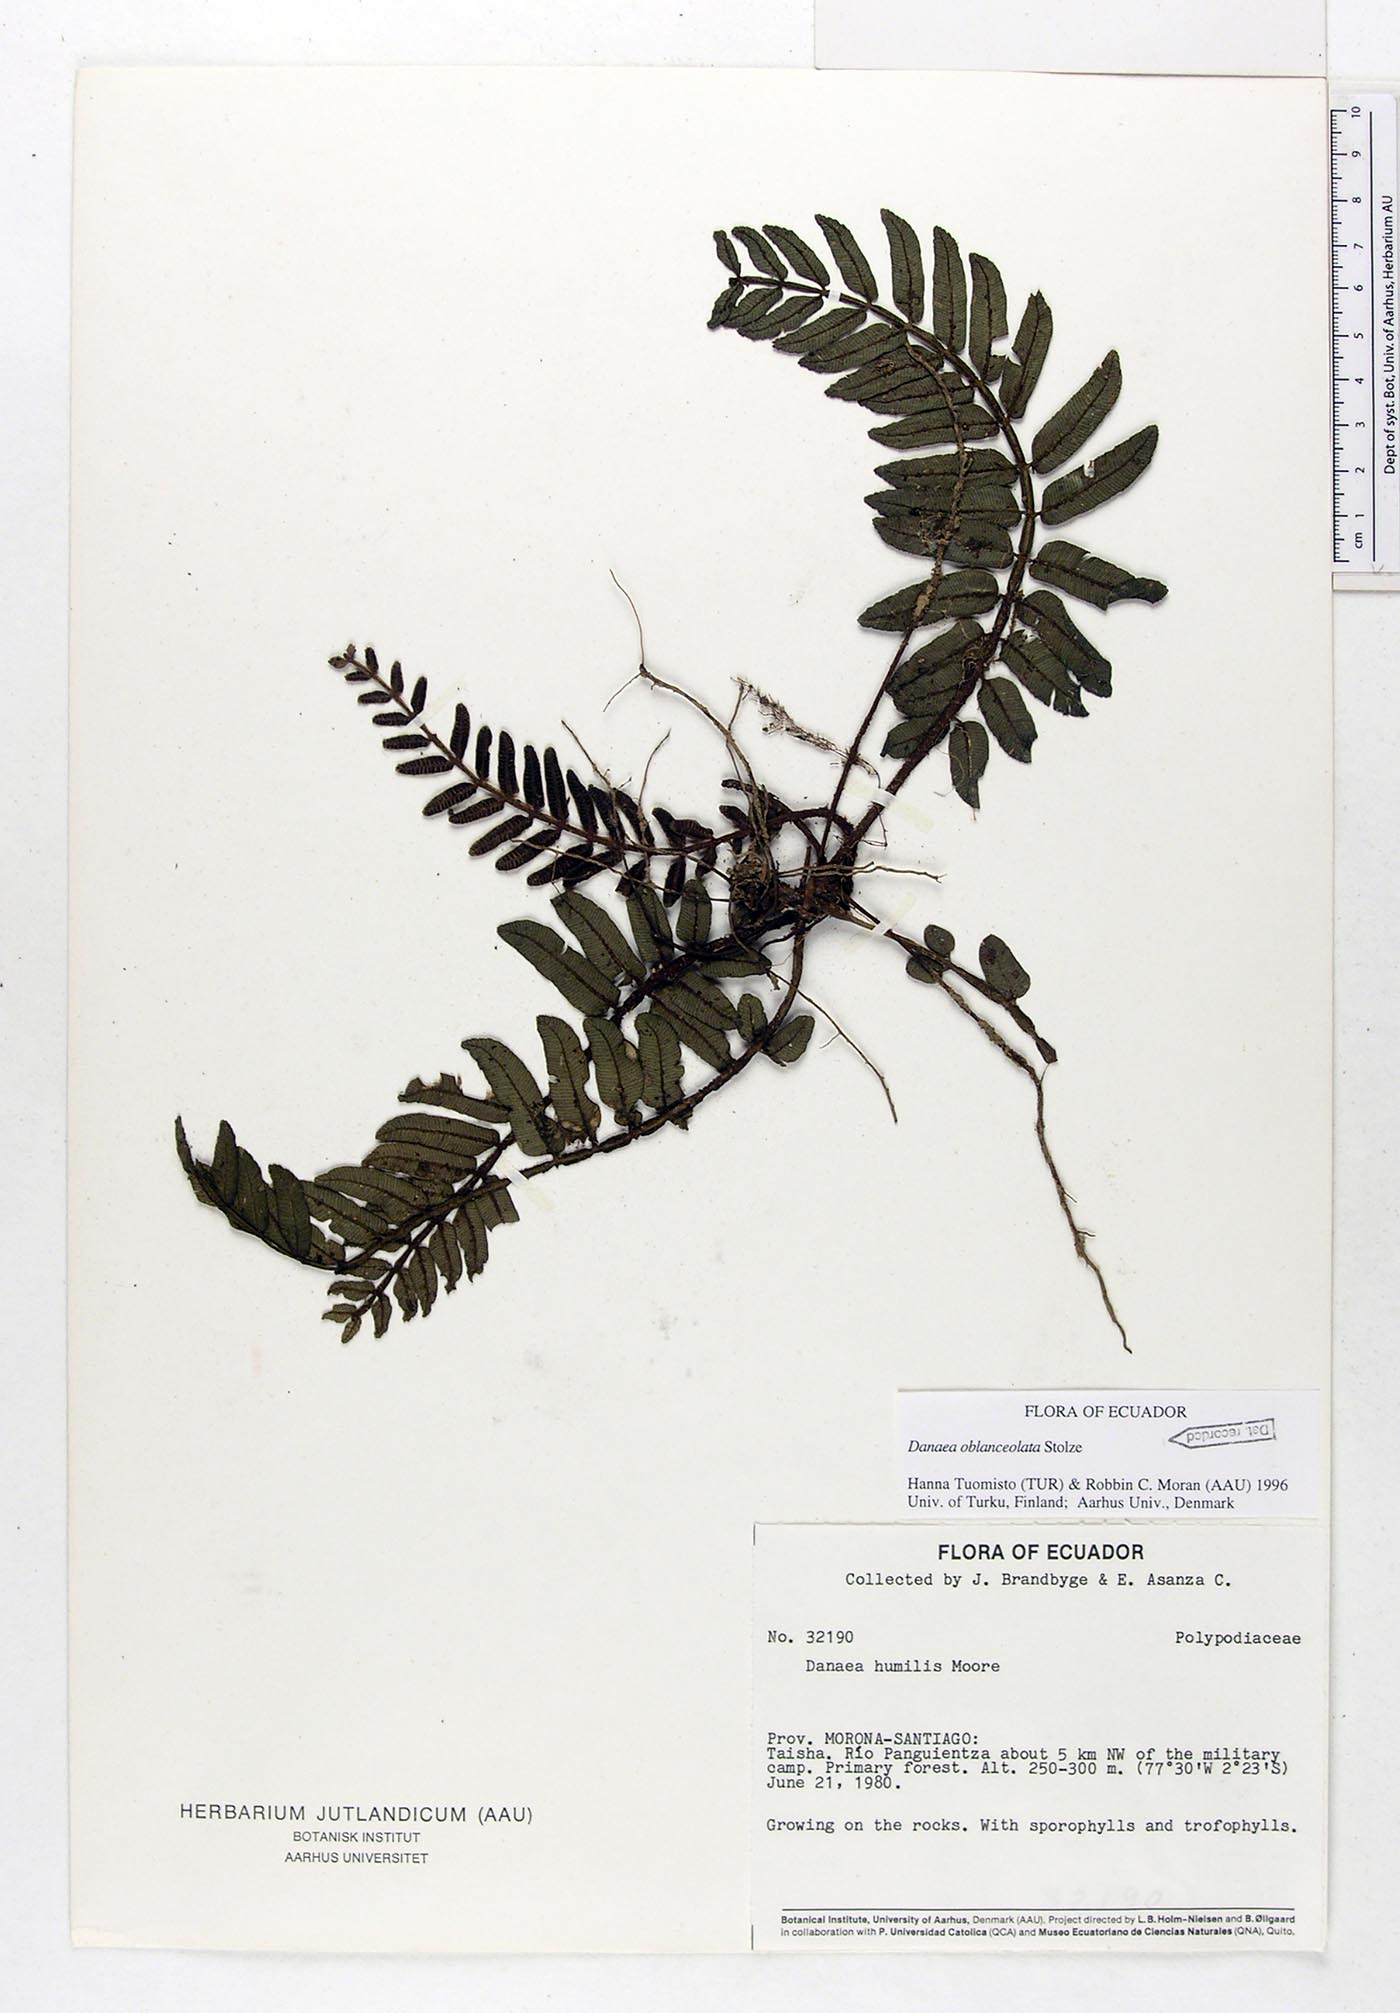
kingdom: Plantae
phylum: Tracheophyta
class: Polypodiopsida
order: Marattiales
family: Marattiaceae
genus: Danaea
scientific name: Danaea humilis
